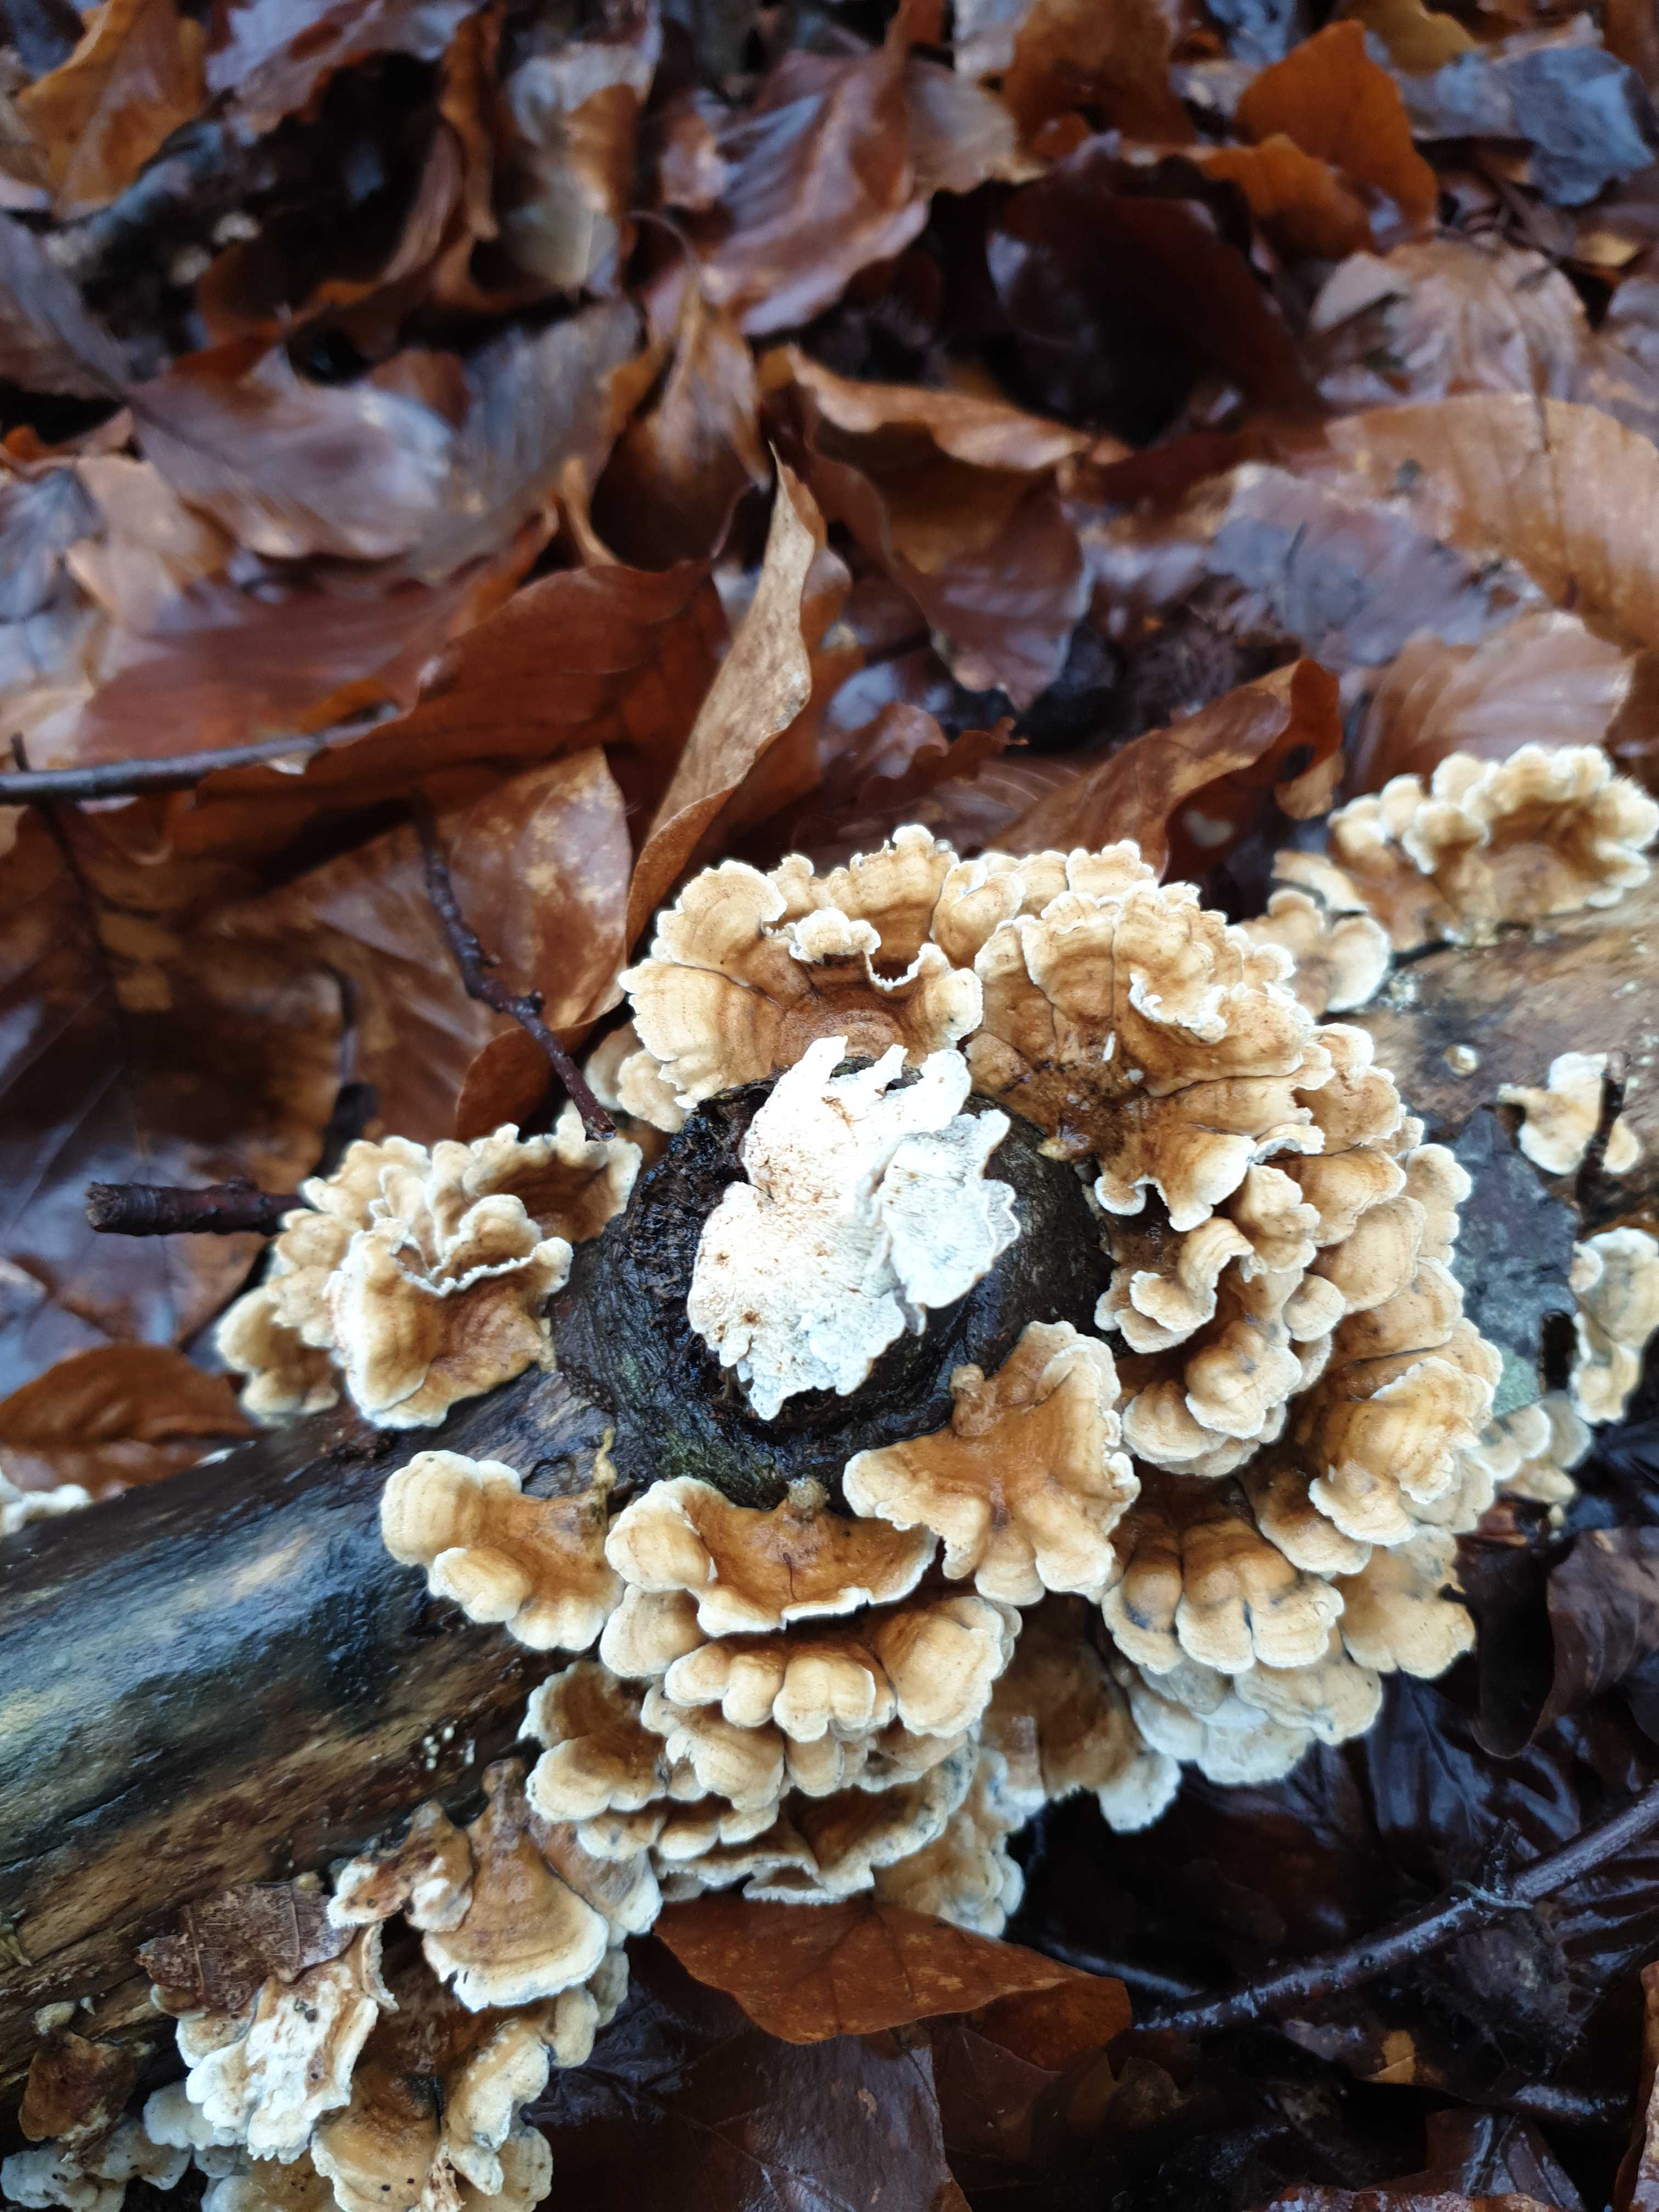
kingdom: Fungi
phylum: Basidiomycota
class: Agaricomycetes
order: Amylocorticiales
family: Amylocorticiaceae
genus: Plicaturopsis
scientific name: Plicaturopsis crispa
